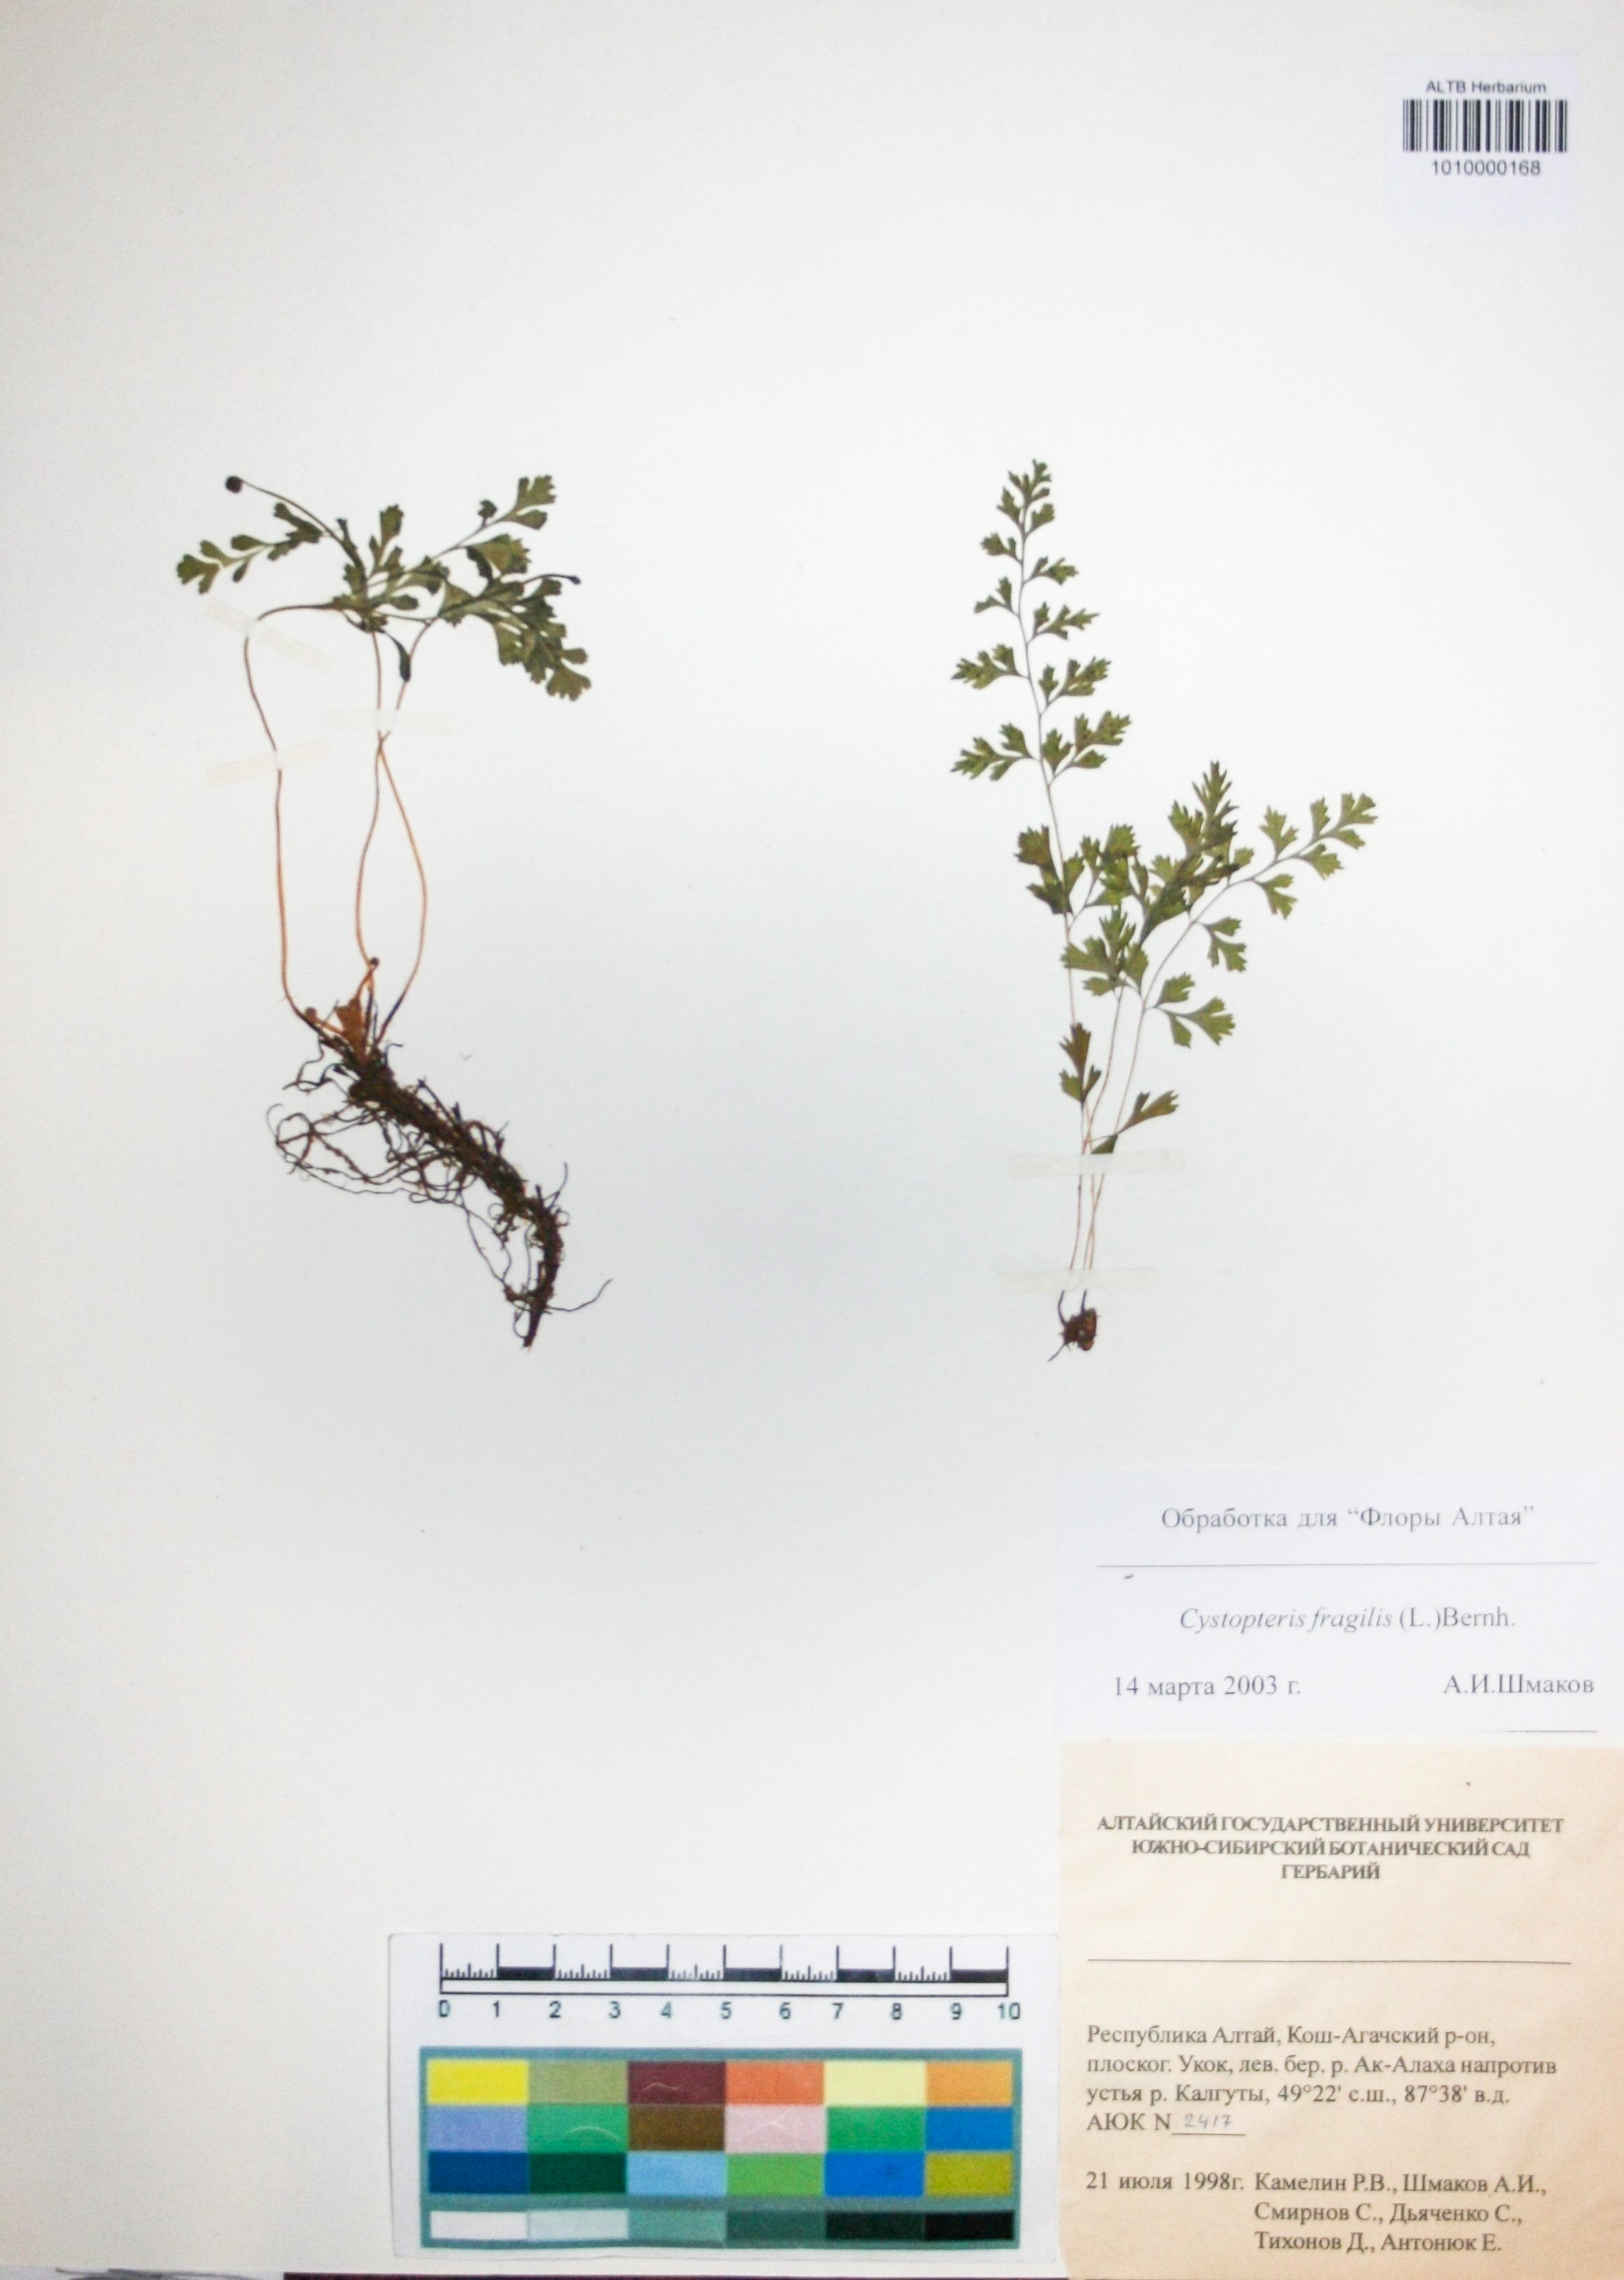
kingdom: Plantae
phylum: Tracheophyta
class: Polypodiopsida
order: Polypodiales
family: Cystopteridaceae
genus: Cystopteris
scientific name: Cystopteris fragilis
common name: Brittle bladder fern
